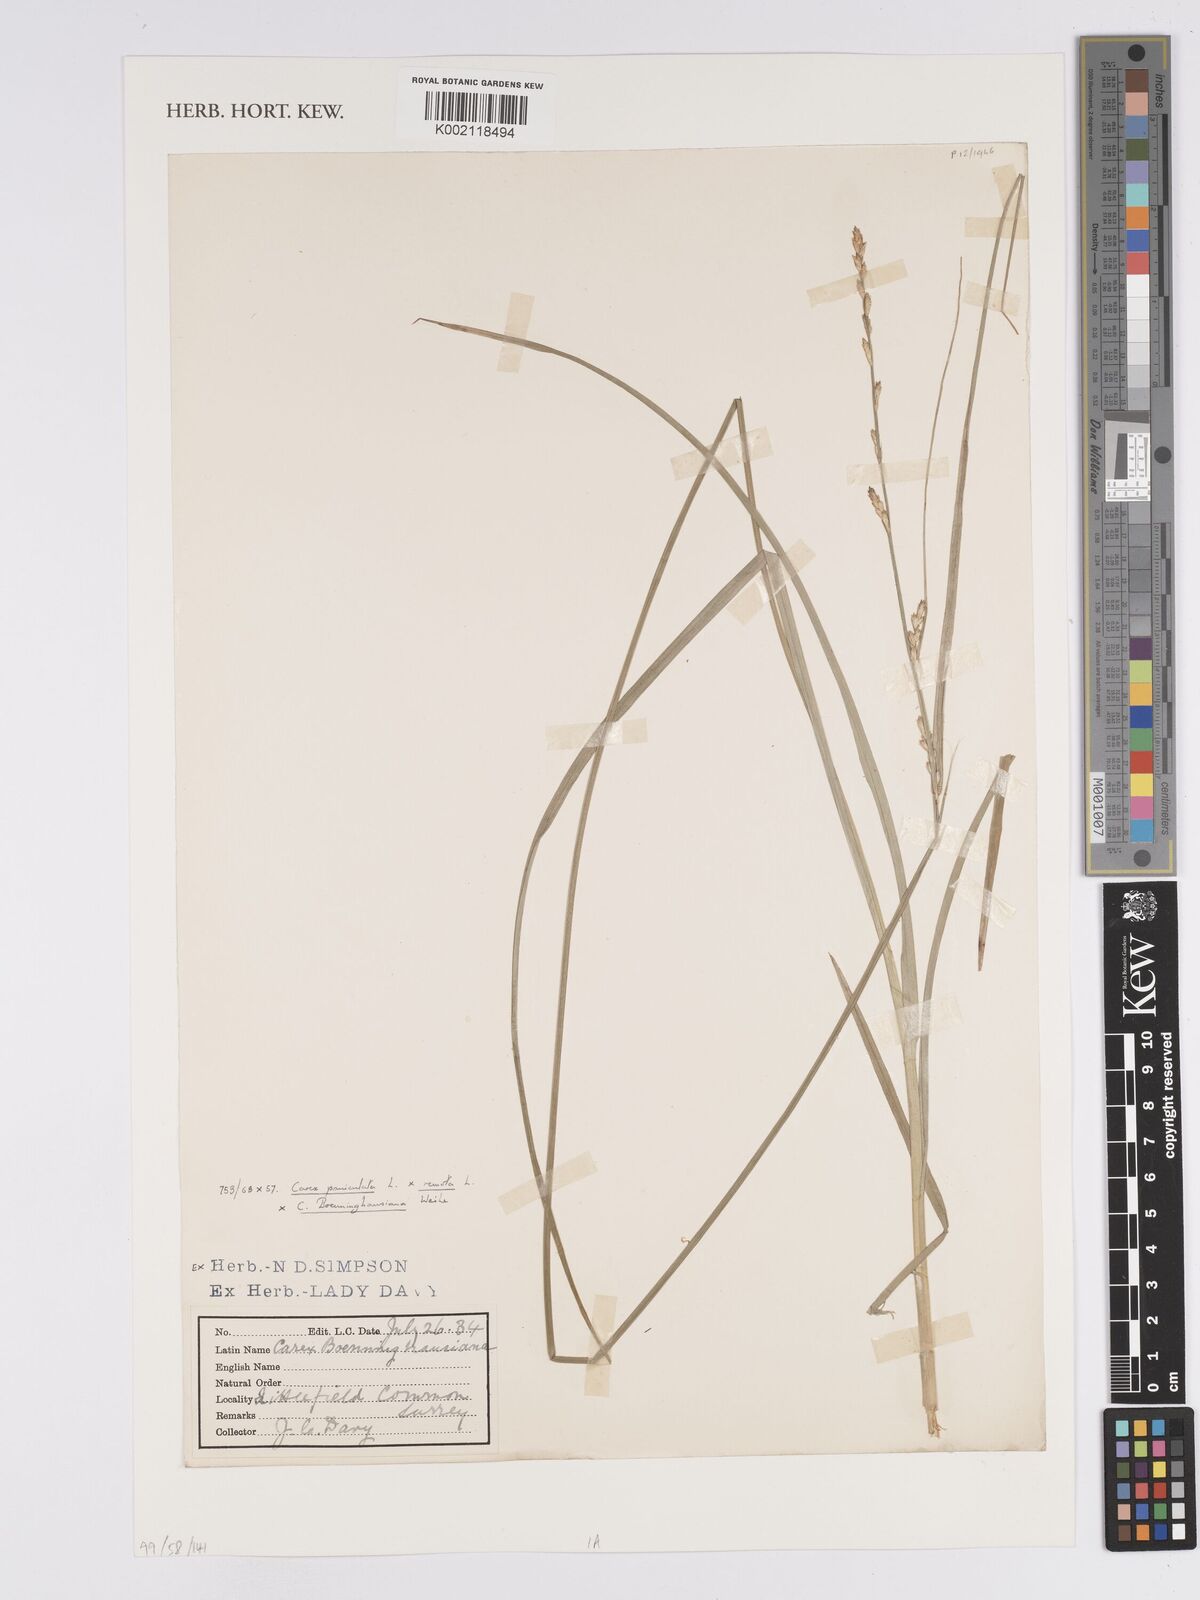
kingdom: Plantae
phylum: Tracheophyta
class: Liliopsida
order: Poales
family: Cyperaceae
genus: Carex
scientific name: Carex boenninghausiana
